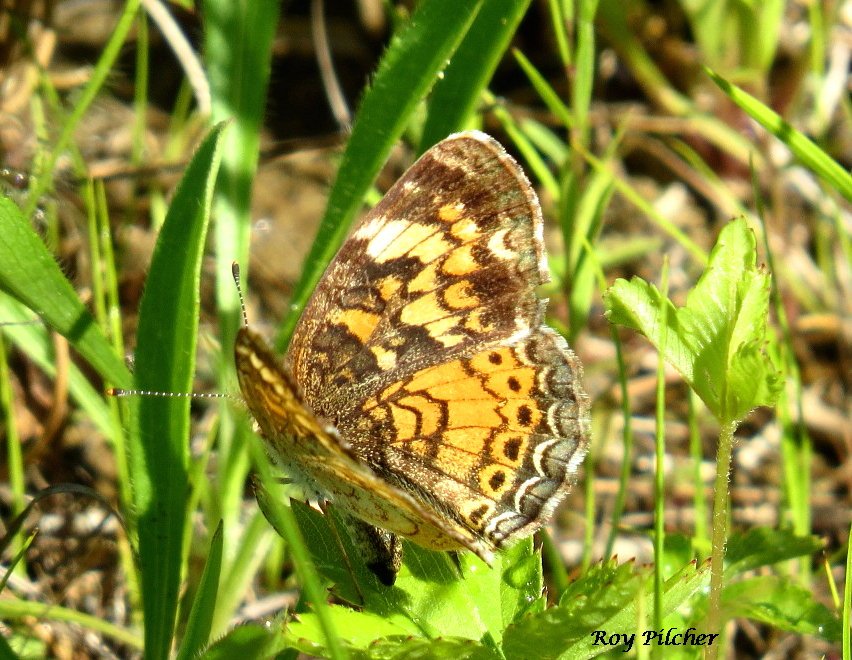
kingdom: Animalia
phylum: Arthropoda
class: Insecta
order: Lepidoptera
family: Nymphalidae
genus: Phyciodes
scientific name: Phyciodes tharos
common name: Pearl Crescent
